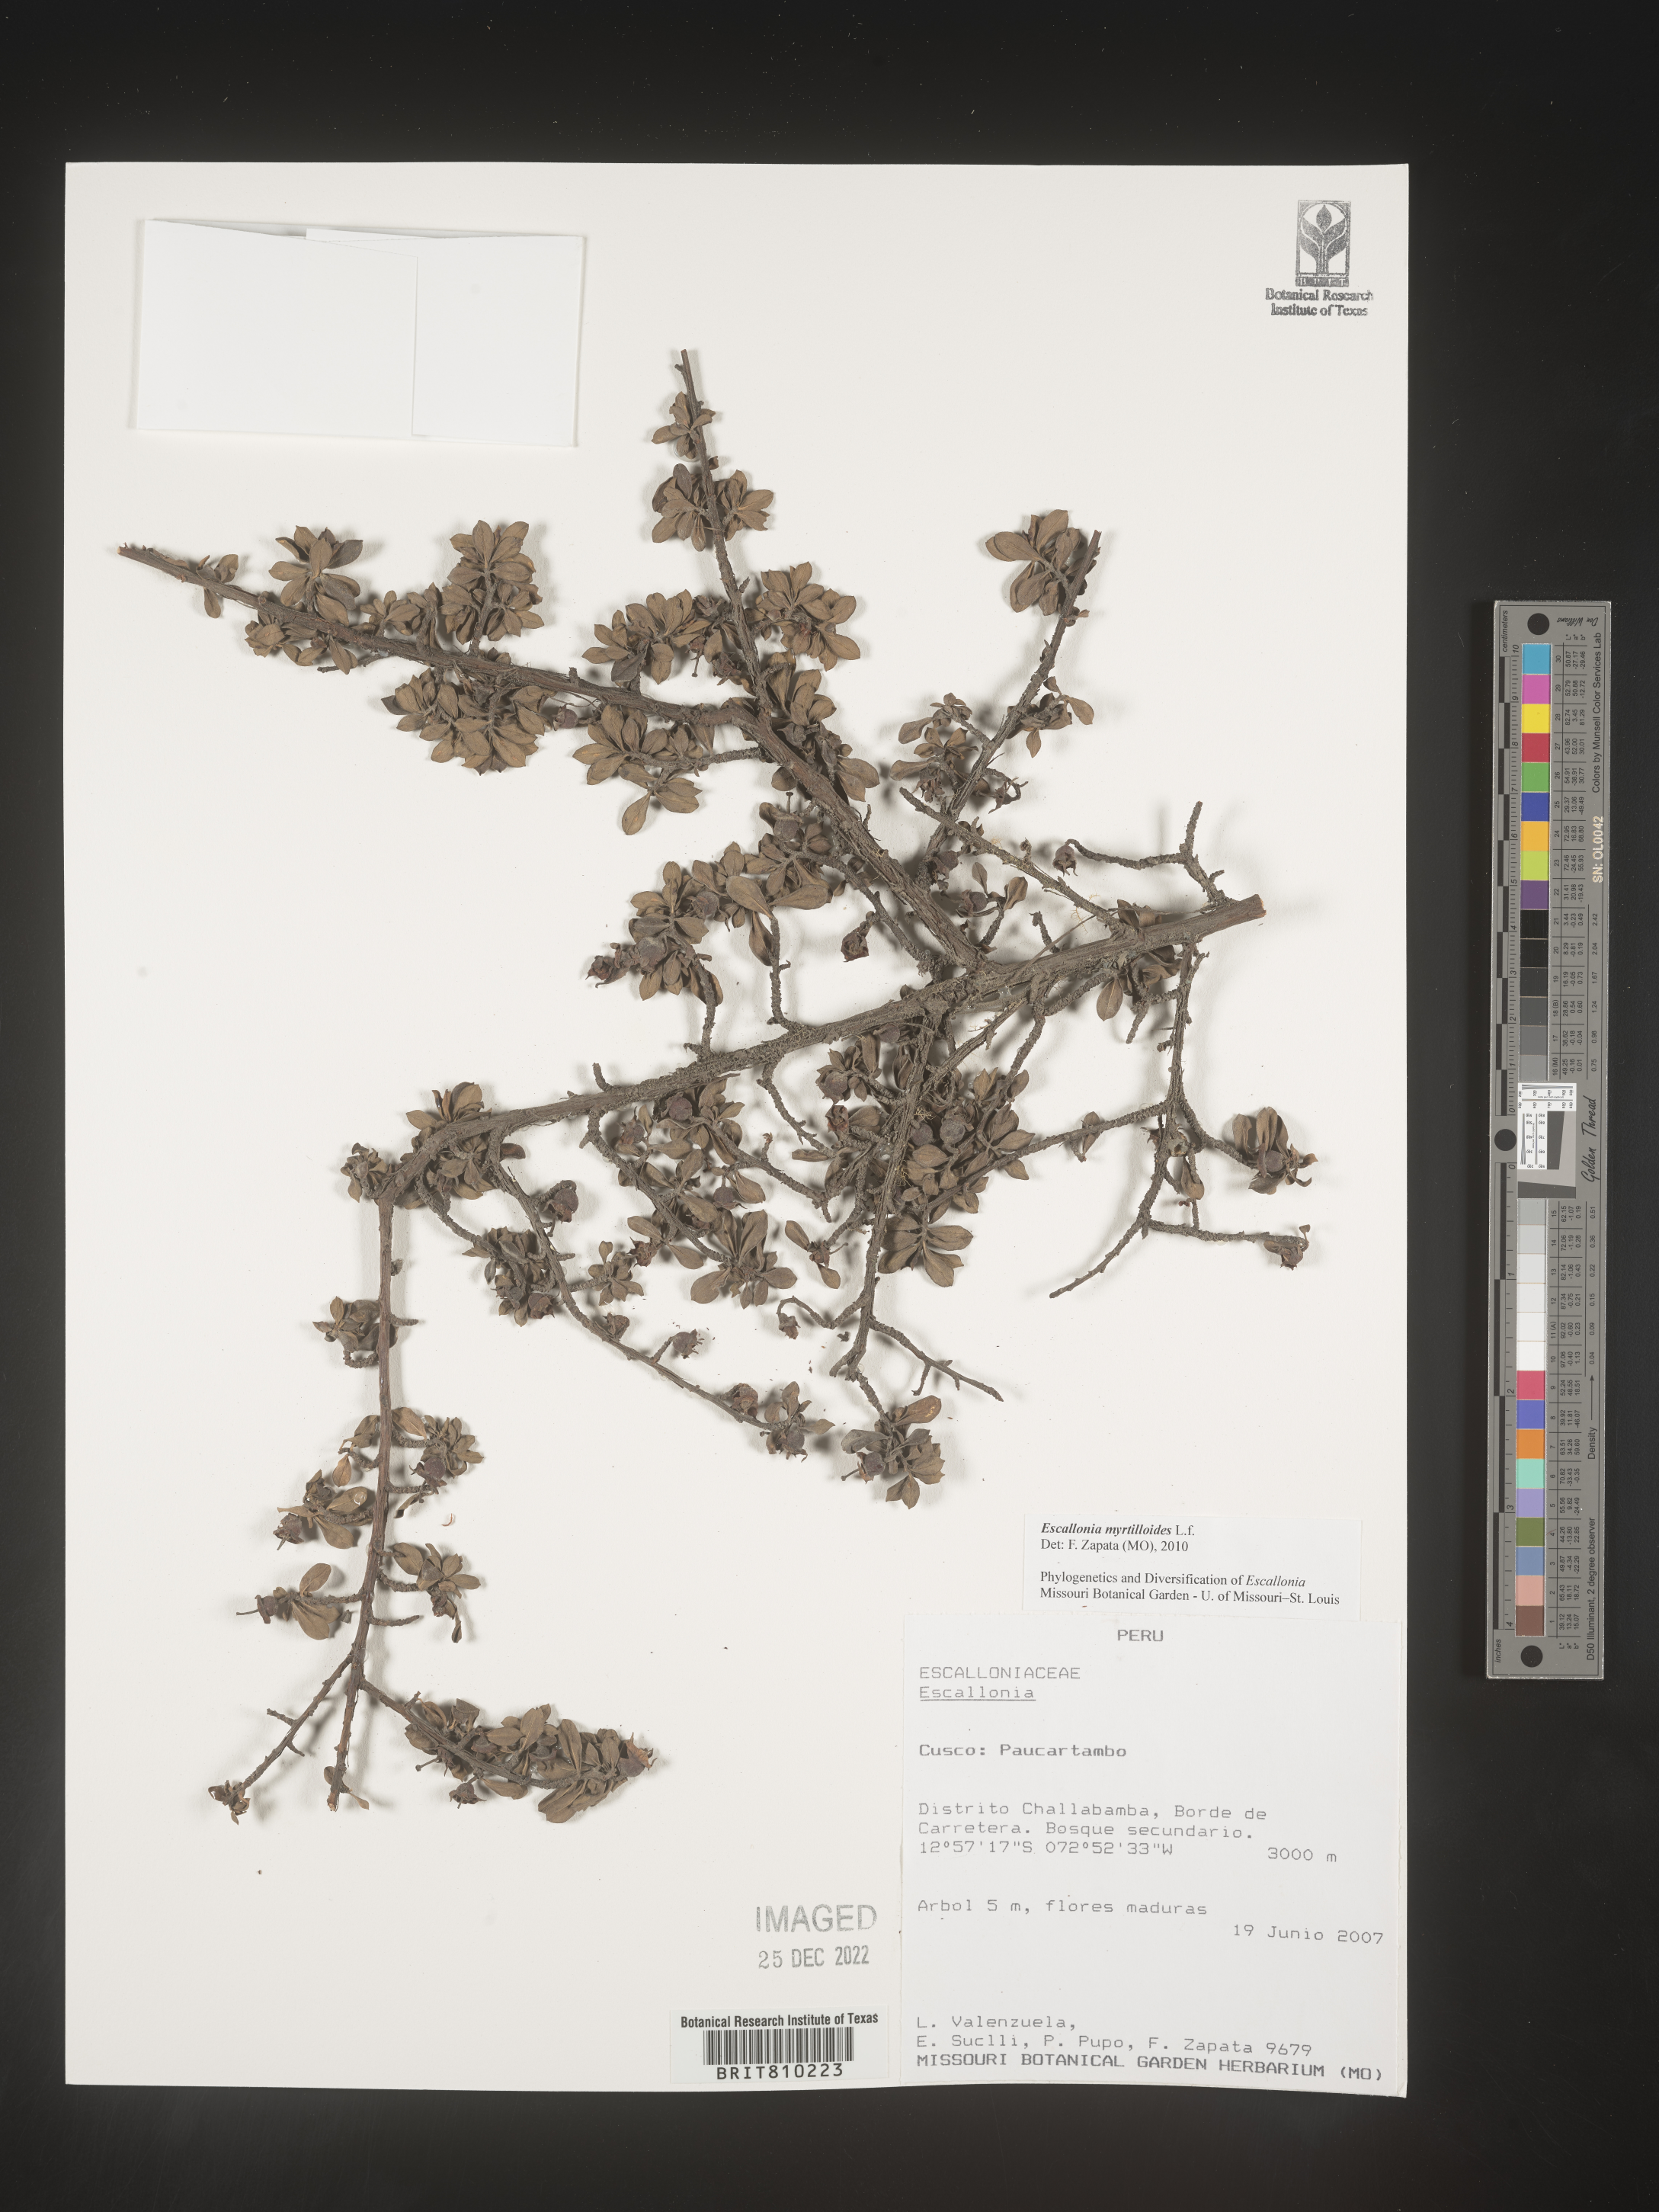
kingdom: Plantae
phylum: Tracheophyta
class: Magnoliopsida
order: Escalloniales
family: Escalloniaceae
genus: Escallonia
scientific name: Escallonia
